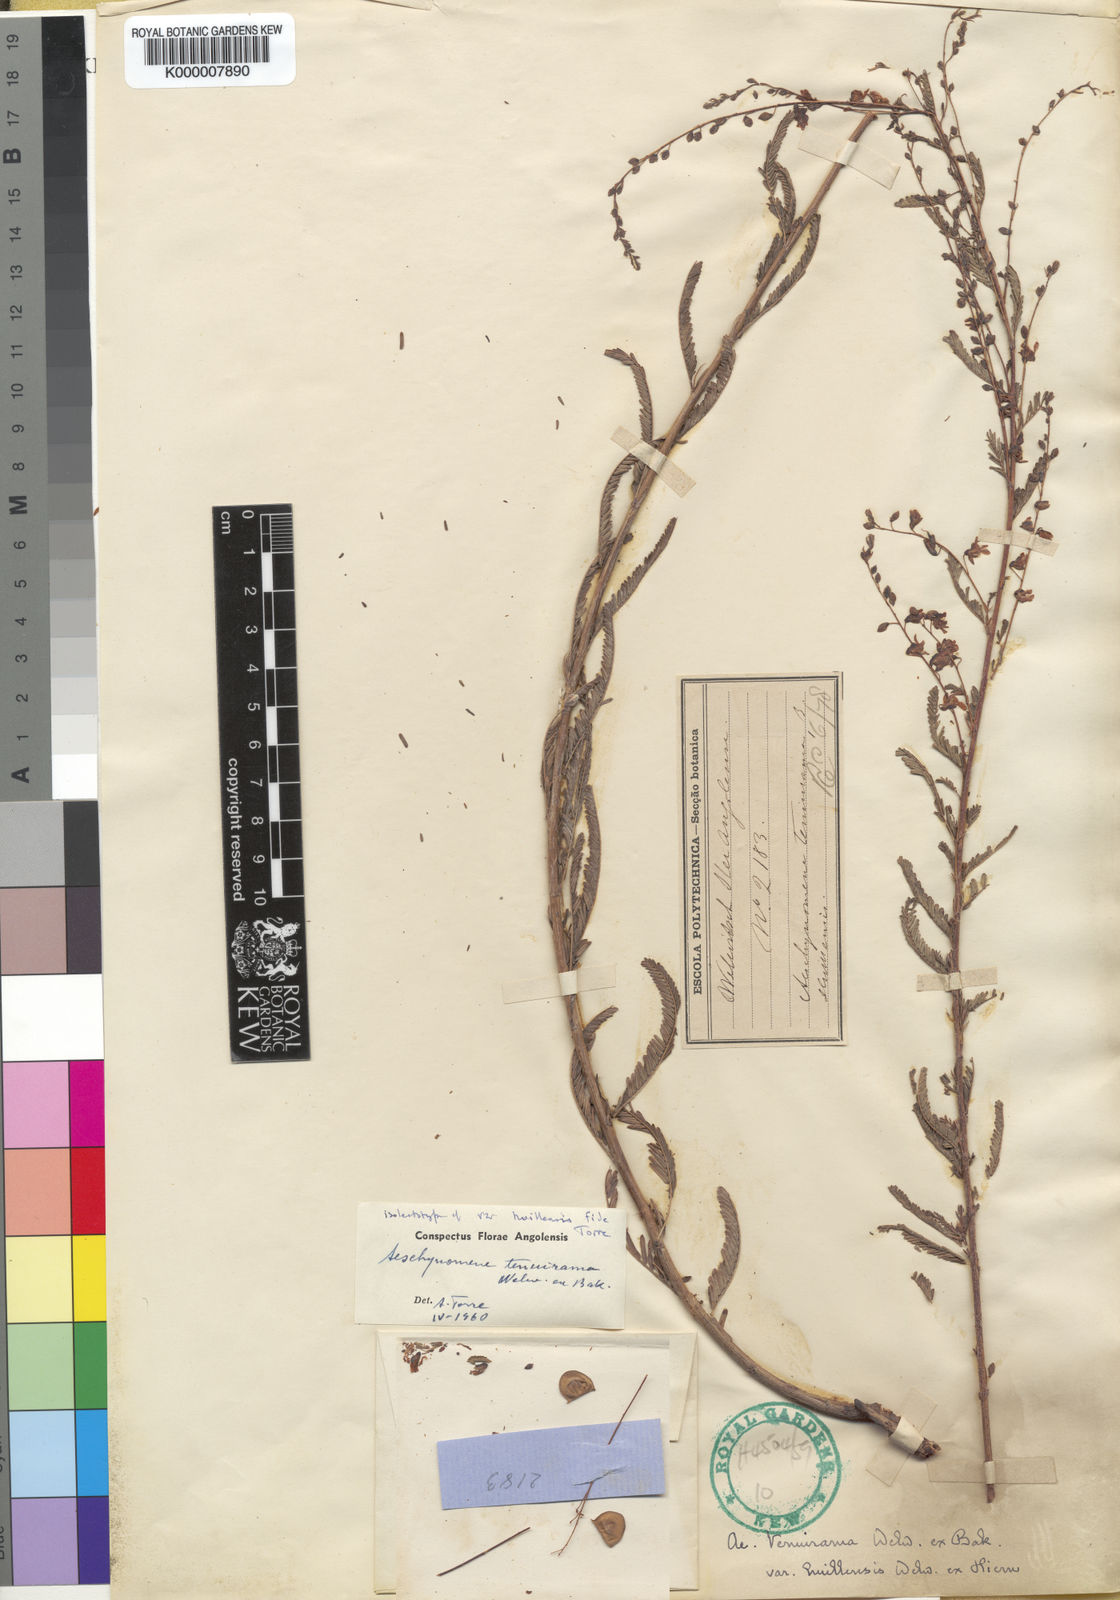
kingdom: Plantae
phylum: Tracheophyta
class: Magnoliopsida
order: Fabales
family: Fabaceae
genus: Aeschynomene
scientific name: Aeschynomene tenuirama
